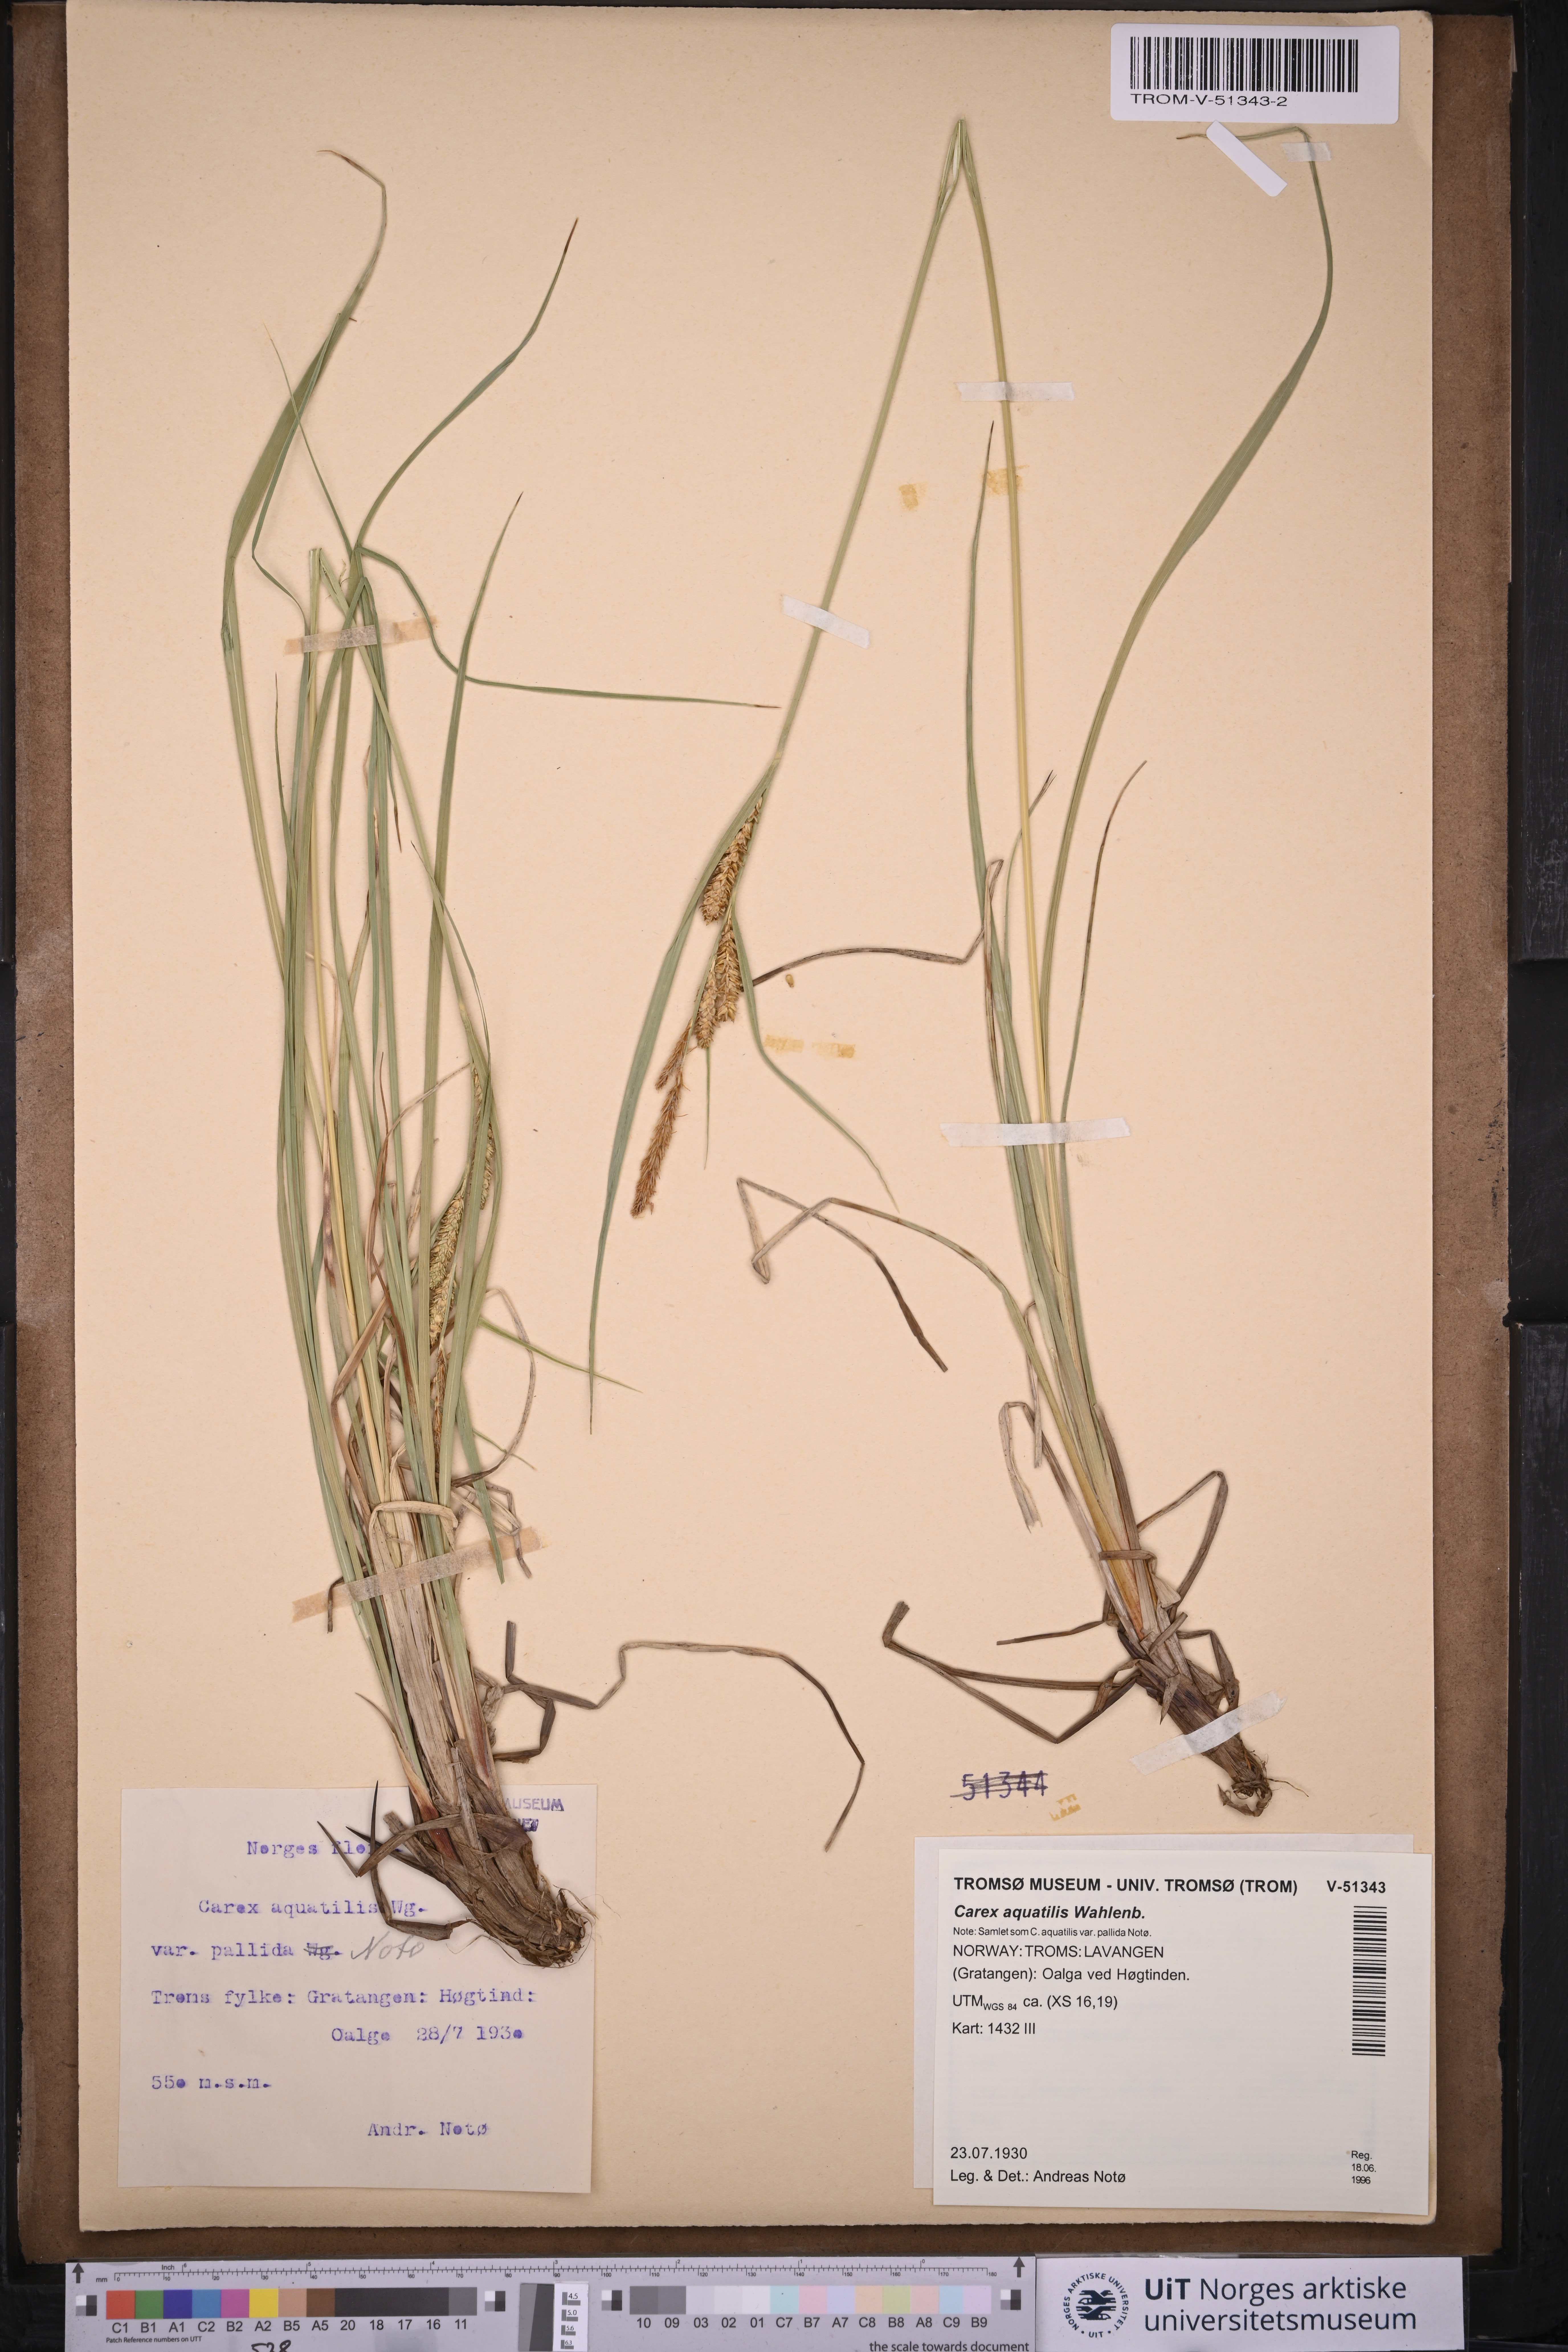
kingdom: Plantae
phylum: Tracheophyta
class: Liliopsida
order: Poales
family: Cyperaceae
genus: Carex
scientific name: Carex aquatilis
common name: Water sedge
